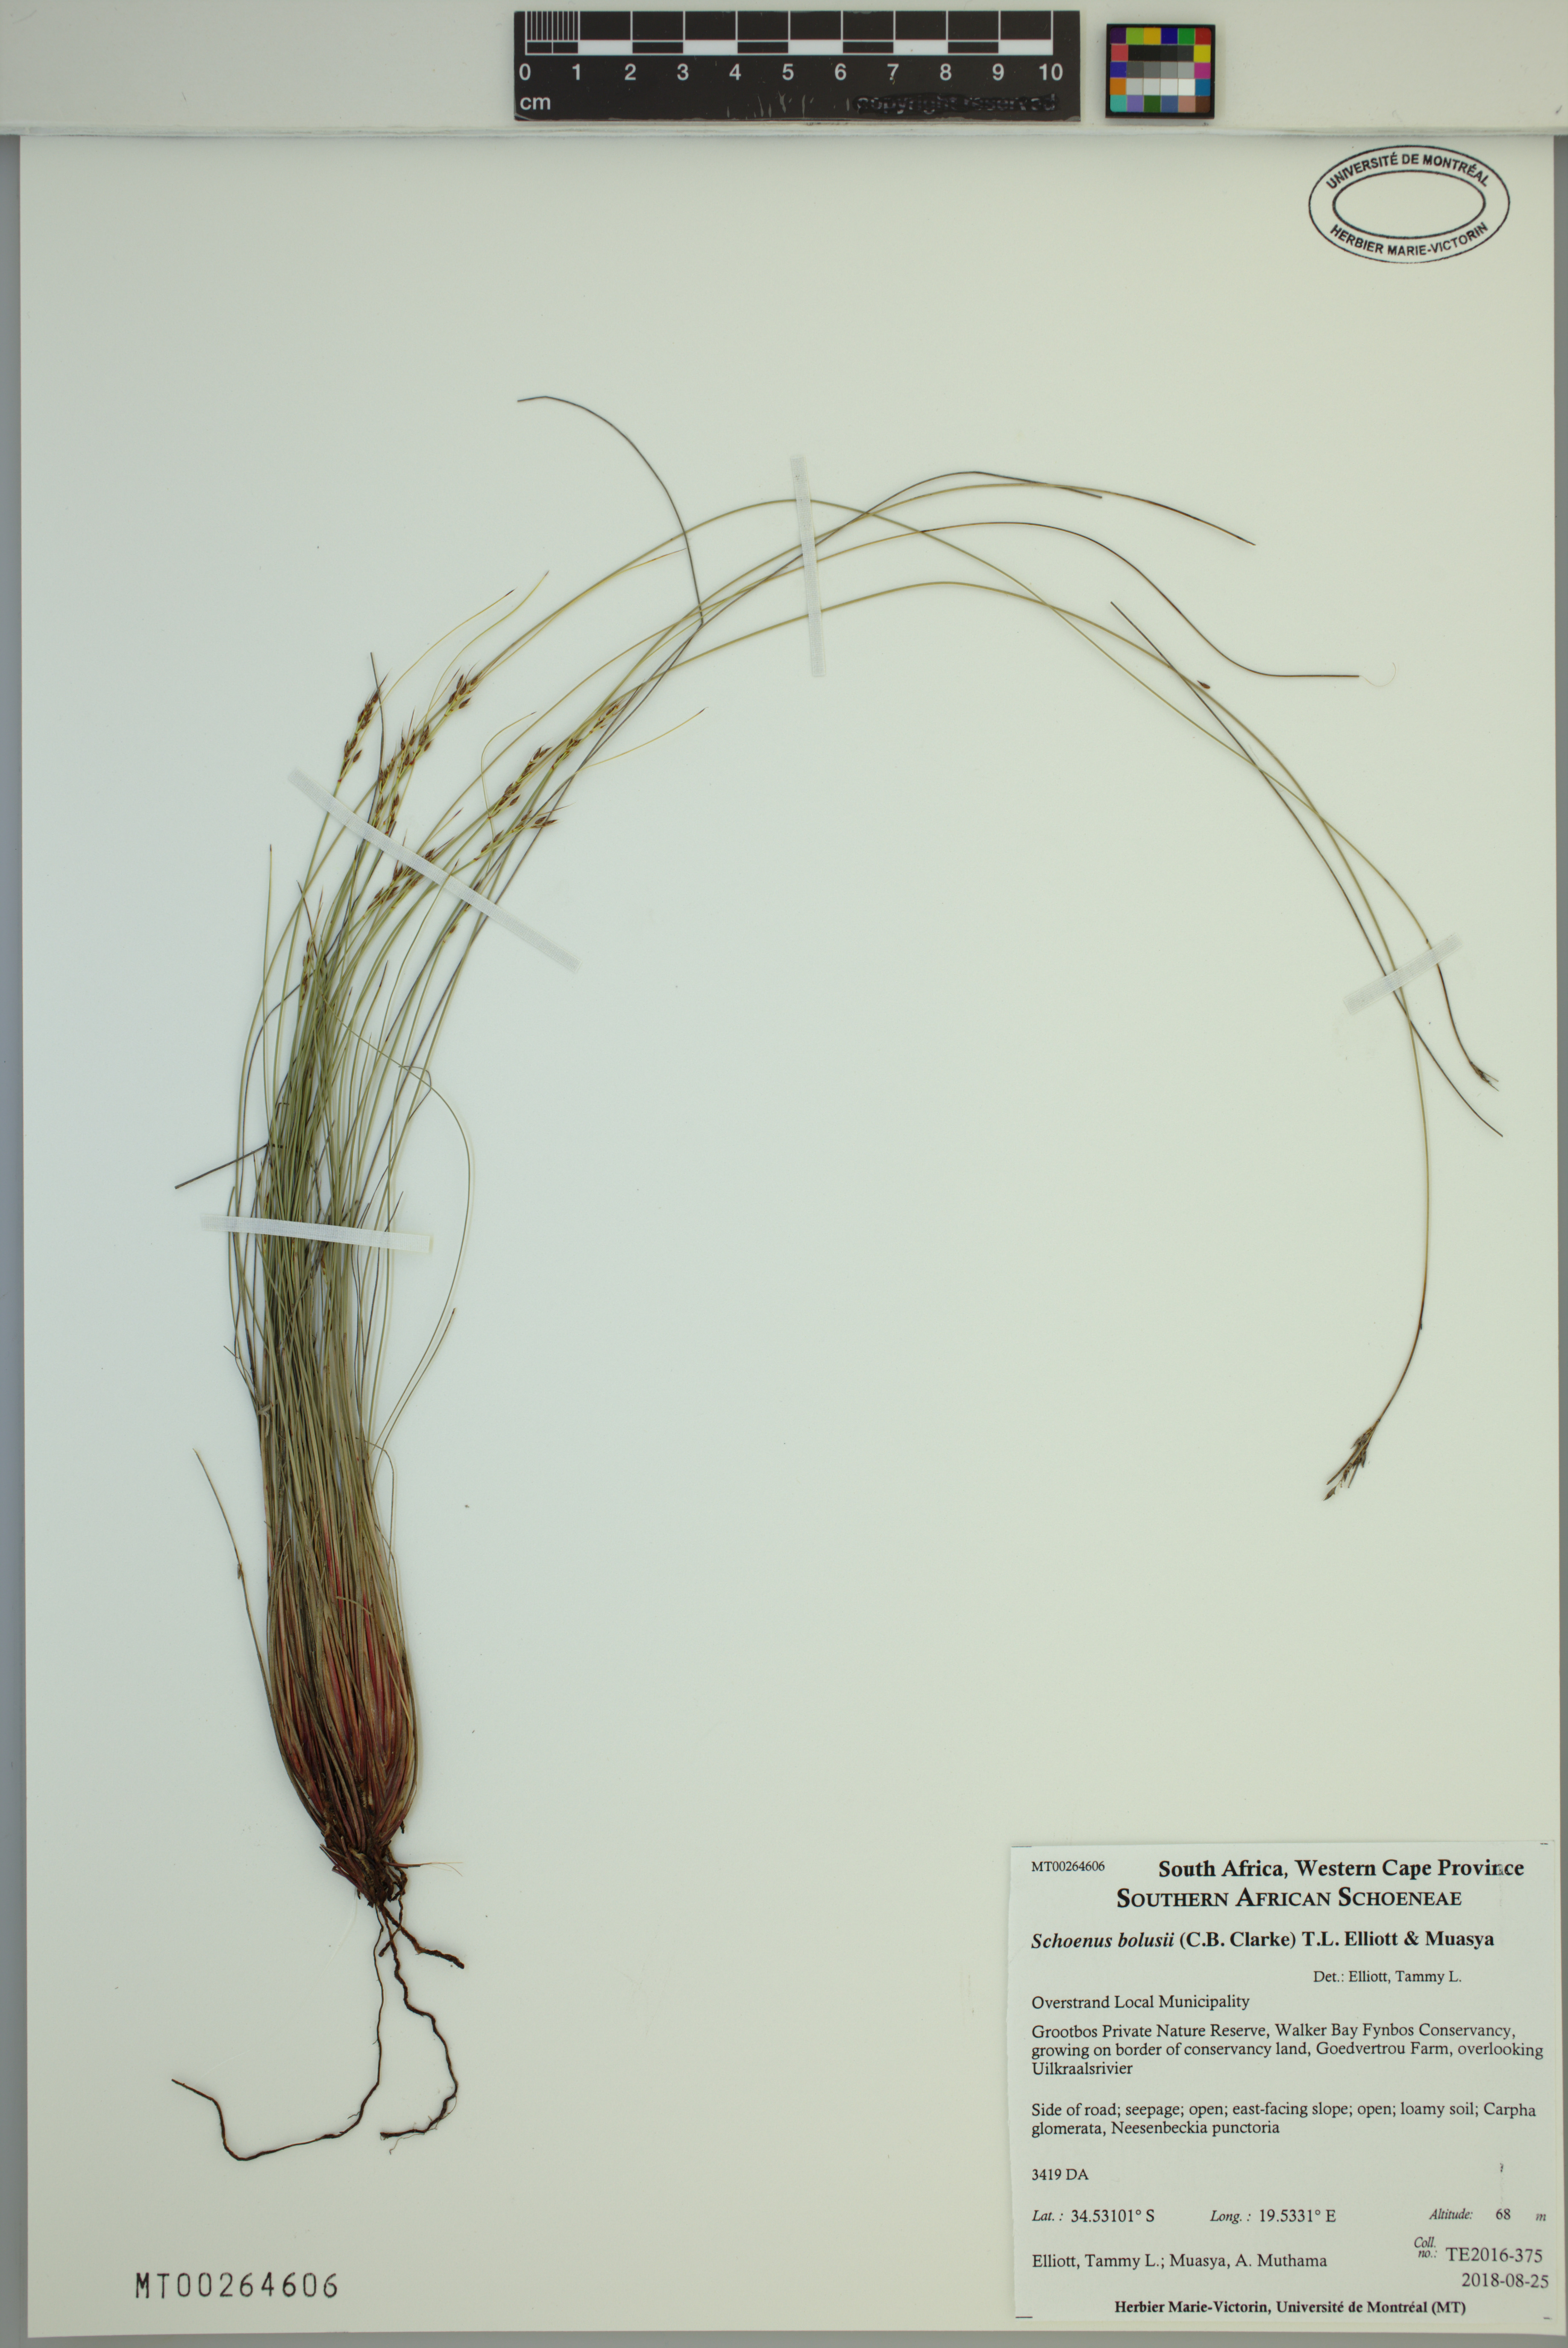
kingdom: Plantae
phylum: Tracheophyta
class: Liliopsida
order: Poales
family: Cyperaceae
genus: Schoenus
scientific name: Schoenus bolusii
